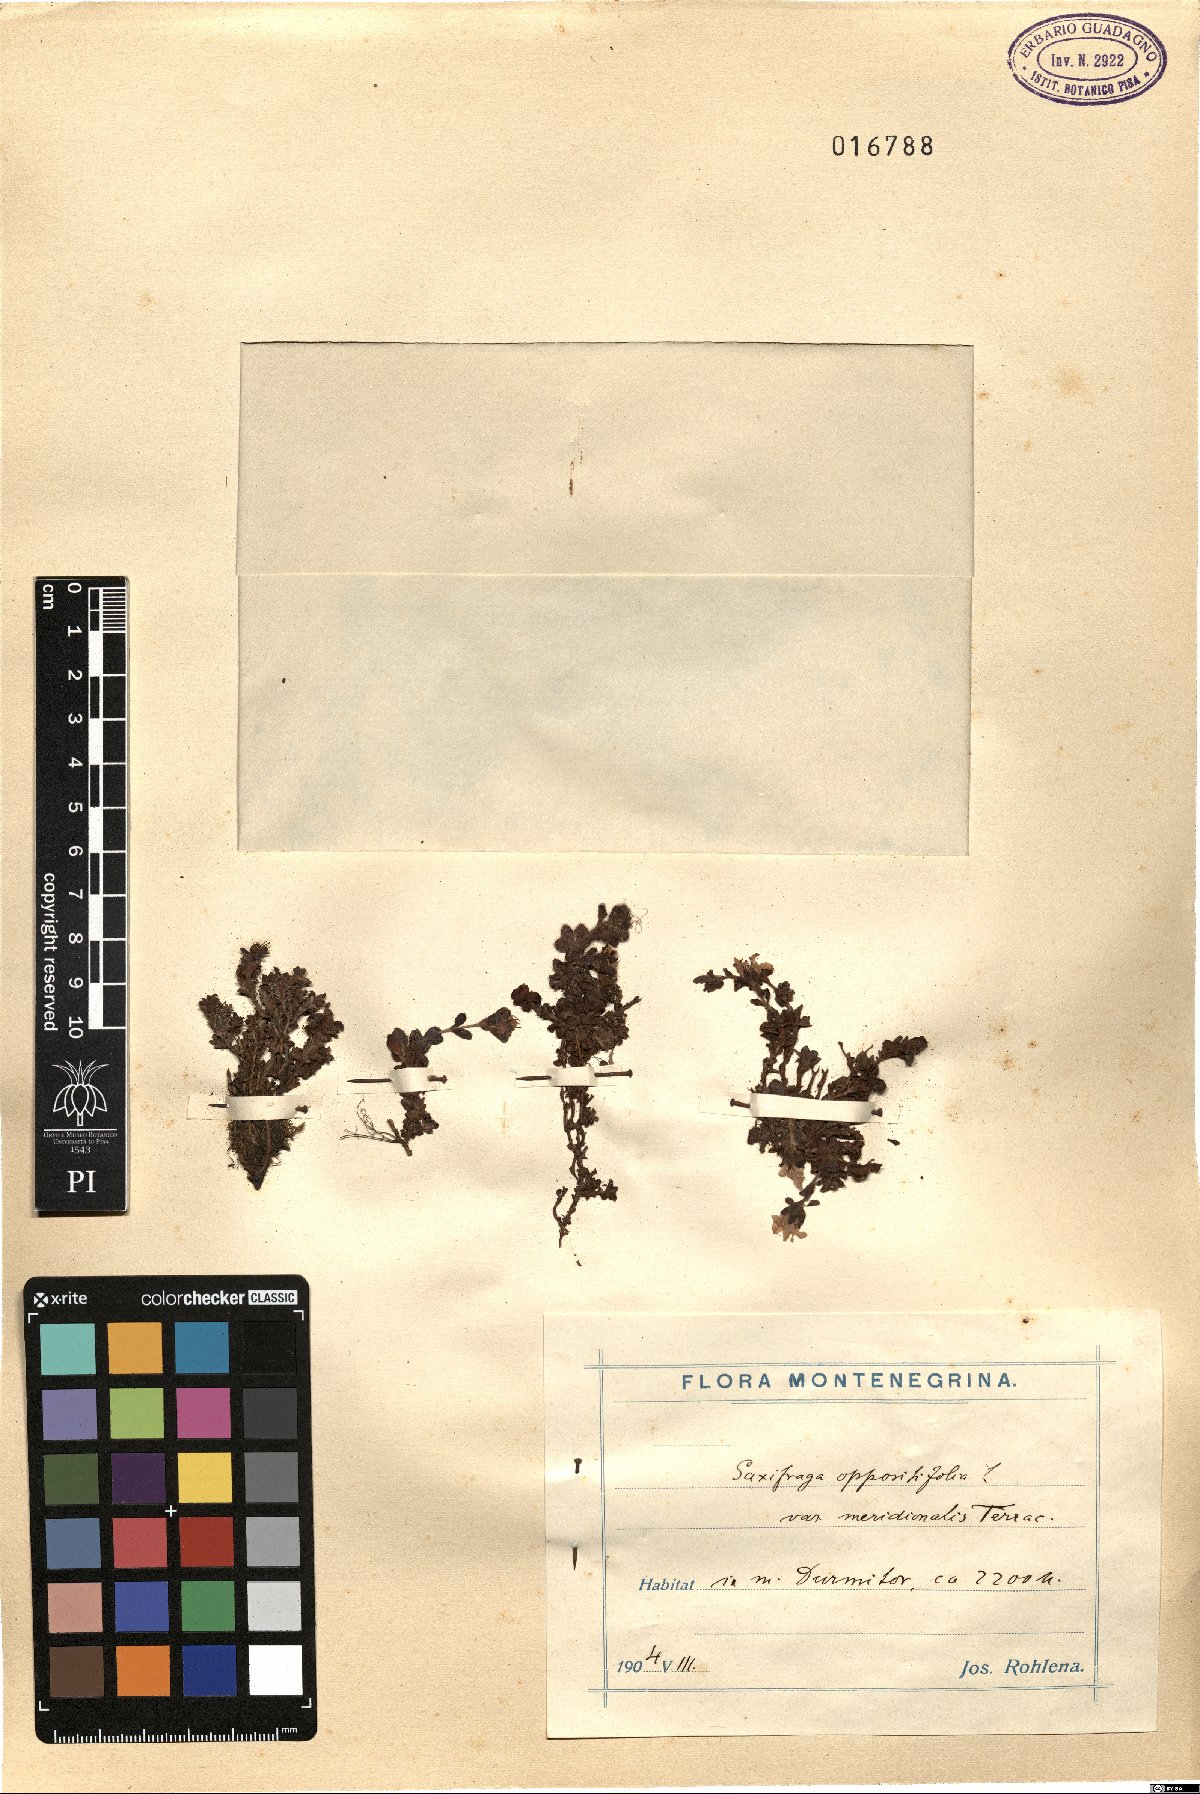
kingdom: Plantae
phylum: Tracheophyta
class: Magnoliopsida
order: Saxifragales
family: Saxifragaceae
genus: Saxifraga
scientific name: Saxifraga oppositifolia
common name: Purple saxifrage
